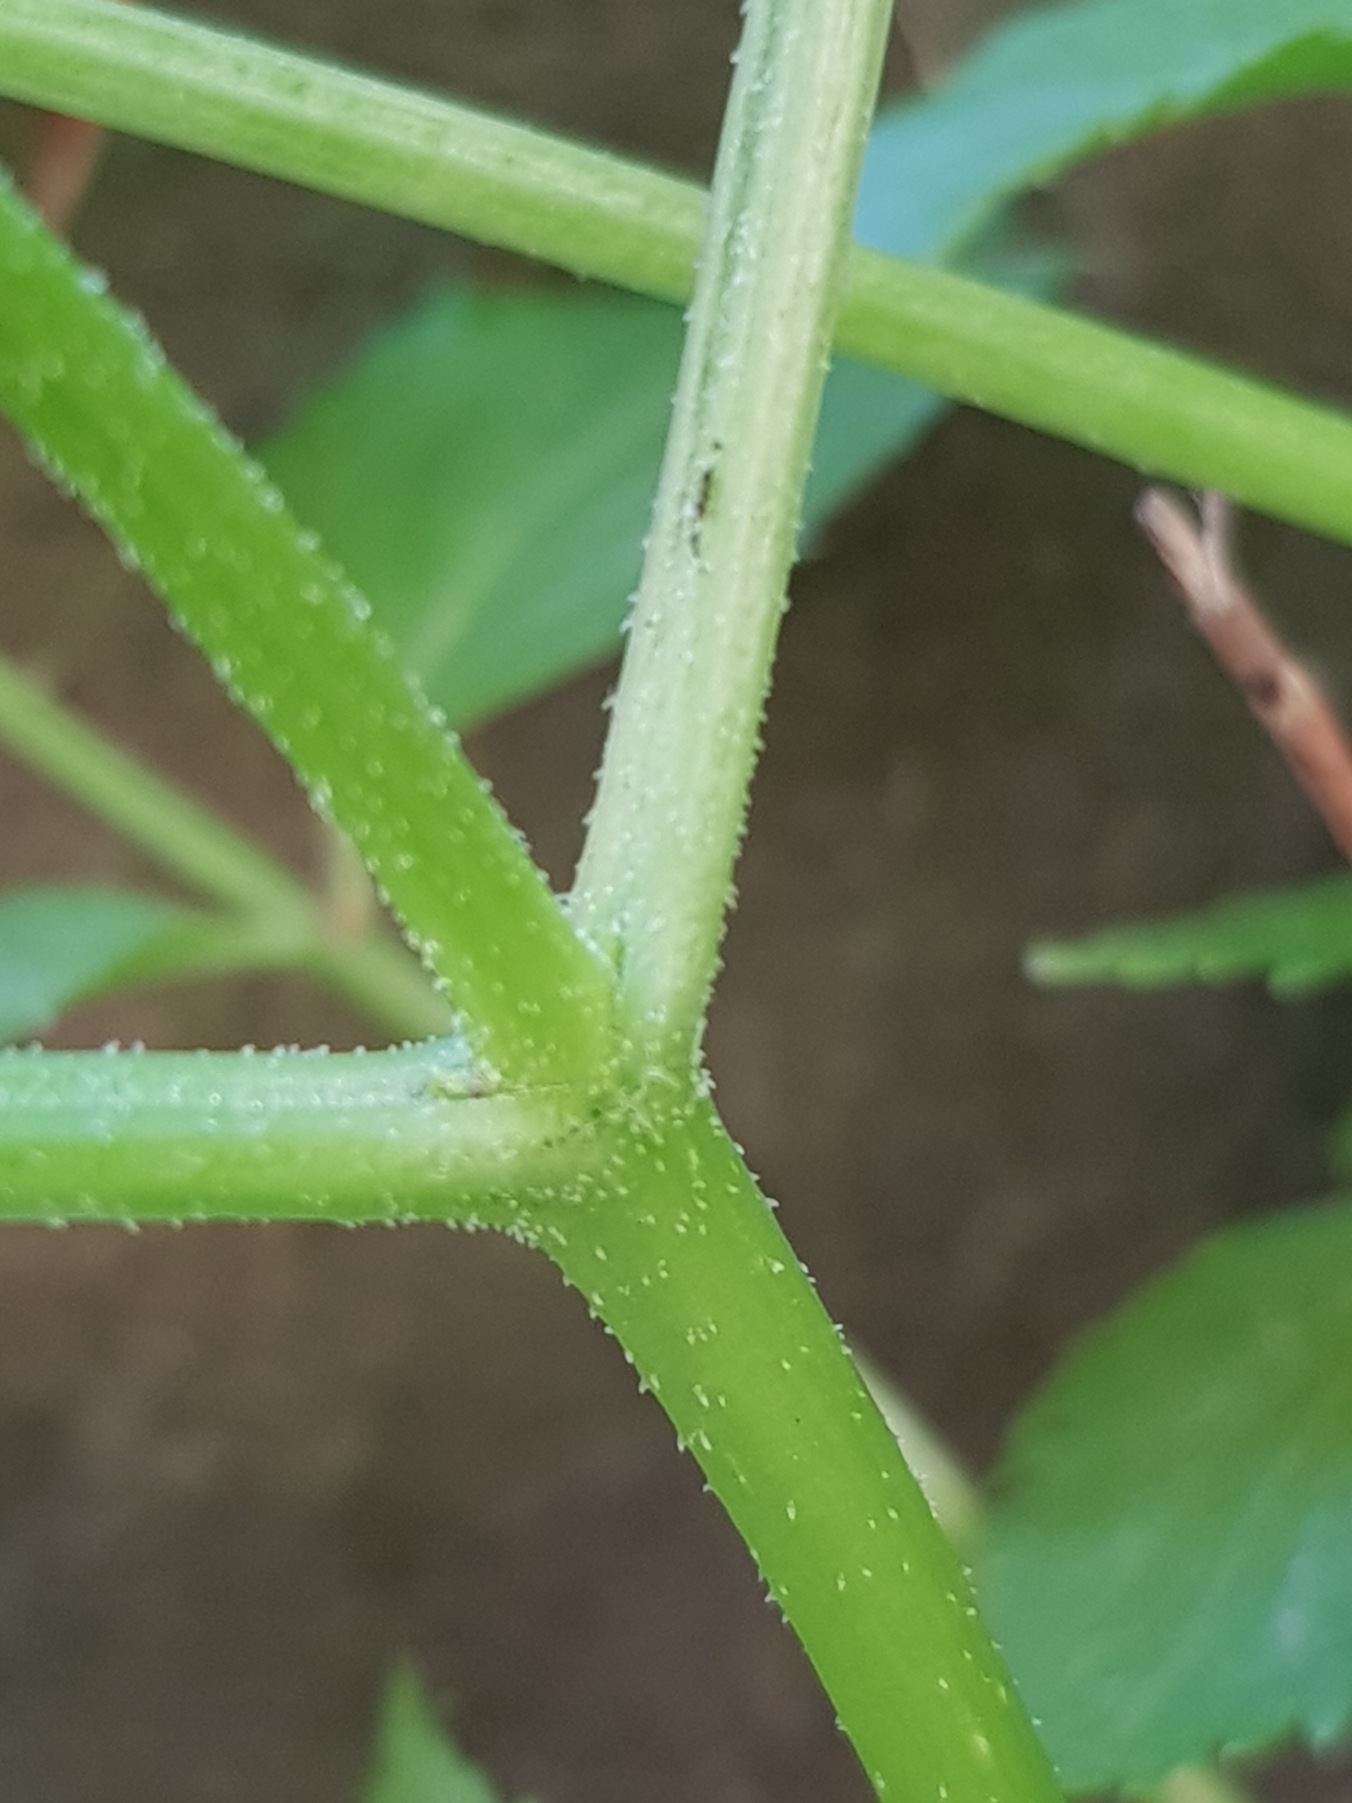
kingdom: Plantae
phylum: Tracheophyta
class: Magnoliopsida
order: Dipsacales
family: Viburnaceae
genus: Sambucus
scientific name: Sambucus
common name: Hyldeslægten
